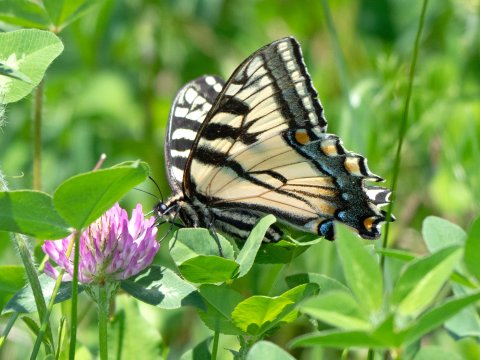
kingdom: Animalia
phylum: Arthropoda
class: Insecta
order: Lepidoptera
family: Papilionidae
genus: Pterourus
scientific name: Pterourus canadensis
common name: Canadian Tiger Swallowtail
